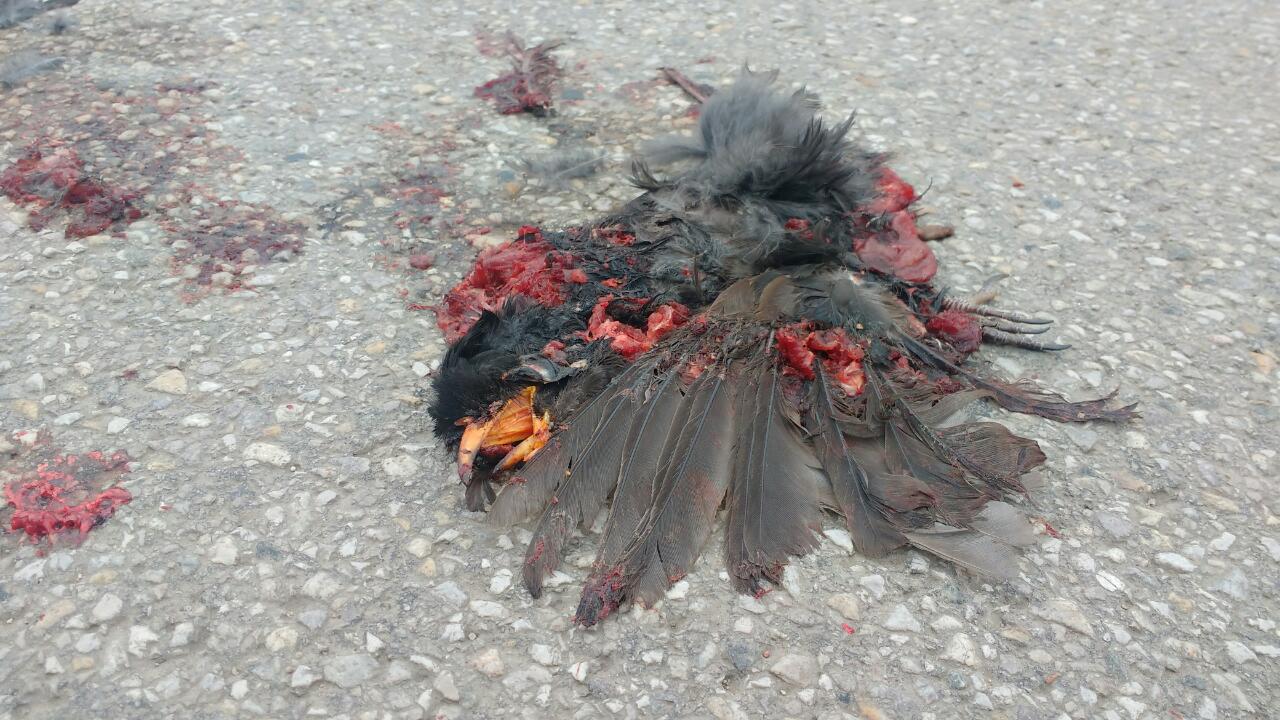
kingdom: Animalia
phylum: Chordata
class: Aves
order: Passeriformes
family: Turdidae
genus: Turdus
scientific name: Turdus merula
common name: Common blackbird
